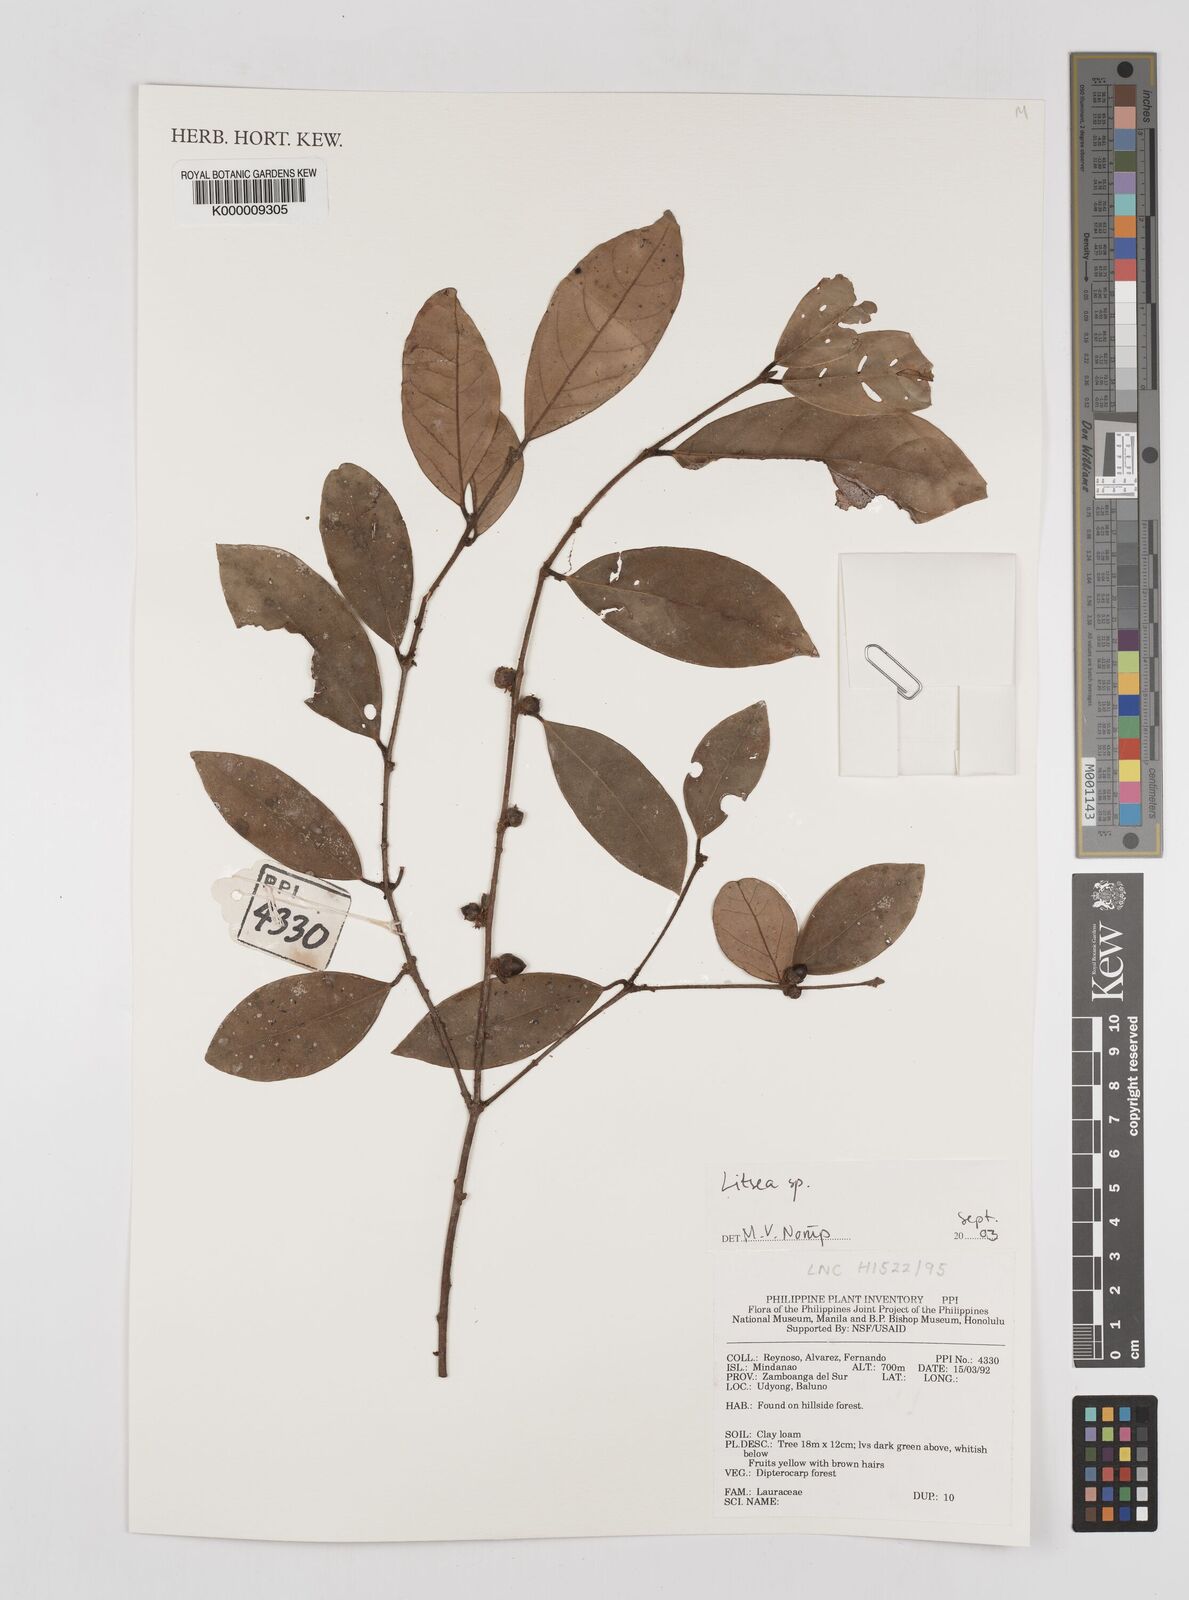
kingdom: Plantae
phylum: Tracheophyta
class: Magnoliopsida
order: Laurales
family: Lauraceae
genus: Litsea
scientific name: Litsea
